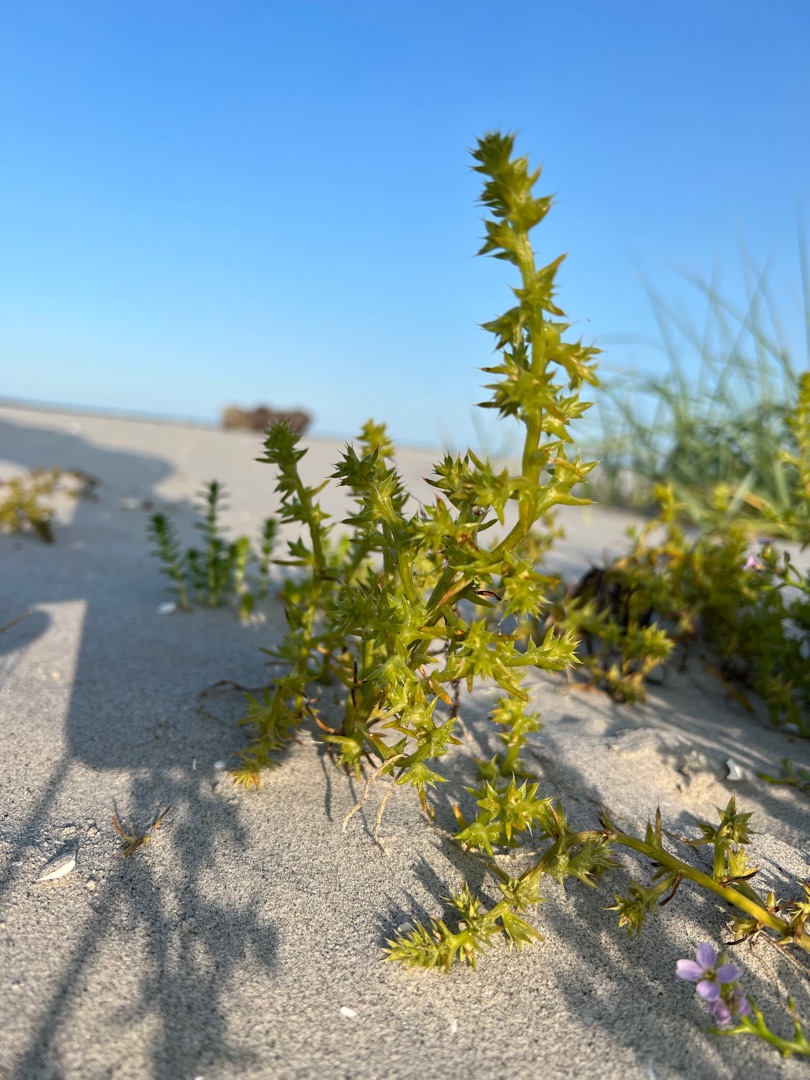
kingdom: Plantae
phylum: Tracheophyta
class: Magnoliopsida
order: Caryophyllales
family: Amaranthaceae
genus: Salsola
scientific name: Salsola kali
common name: Sodaurt
